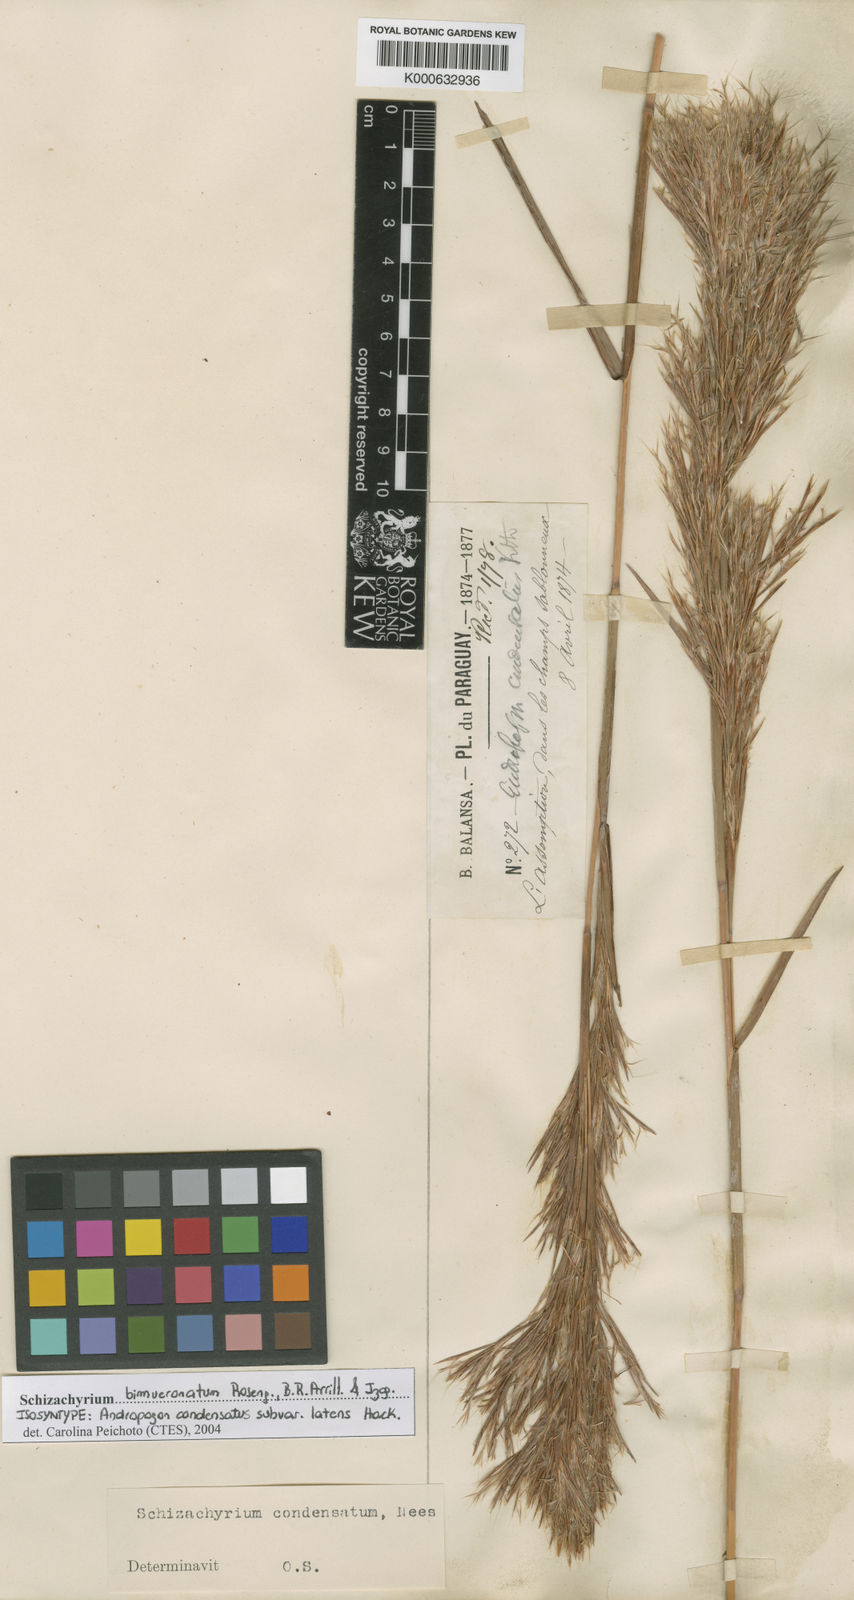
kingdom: Plantae
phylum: Tracheophyta
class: Liliopsida
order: Poales
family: Poaceae
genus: Schizachyrium
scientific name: Schizachyrium condensatum
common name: Bush beardgrass
